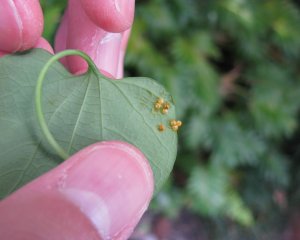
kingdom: Animalia
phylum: Arthropoda
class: Insecta
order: Lepidoptera
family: Papilionidae
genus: Battus
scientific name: Battus polydamas
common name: Polydamas Swallowtail
